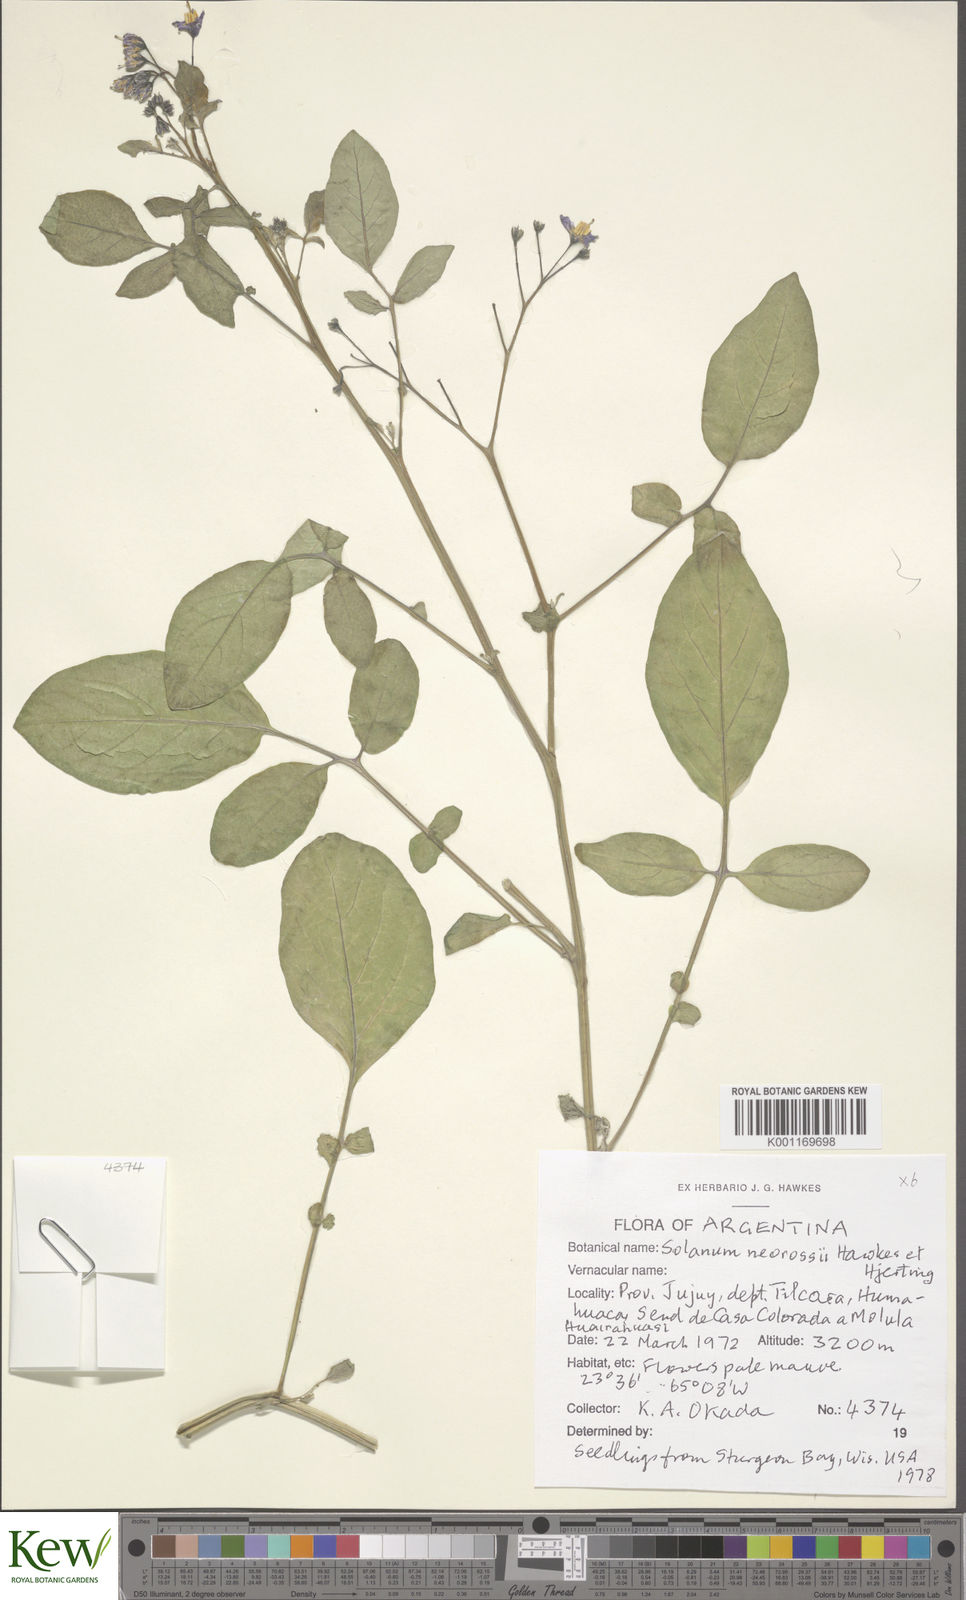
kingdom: Plantae
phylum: Tracheophyta
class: Magnoliopsida
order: Solanales
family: Solanaceae
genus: Solanum
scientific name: Solanum neorossii
